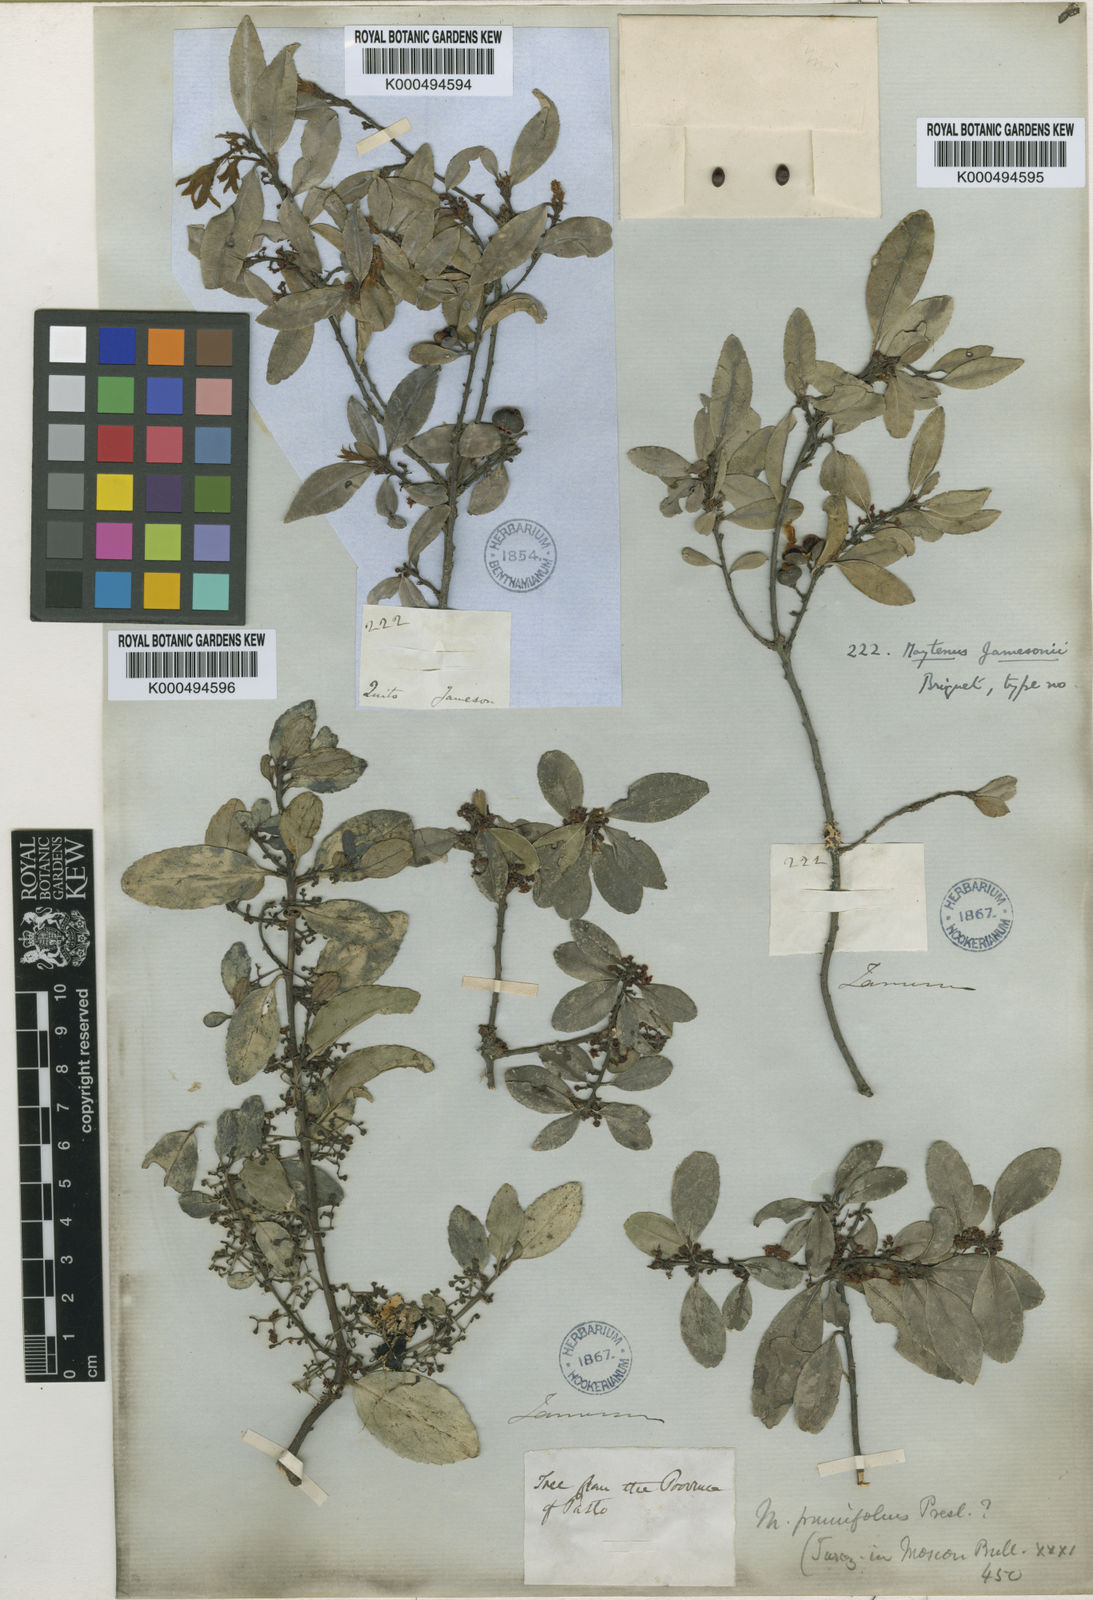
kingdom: Plantae
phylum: Tracheophyta
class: Magnoliopsida
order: Celastrales
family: Celastraceae
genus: Maytenus
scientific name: Maytenus jamesonii
